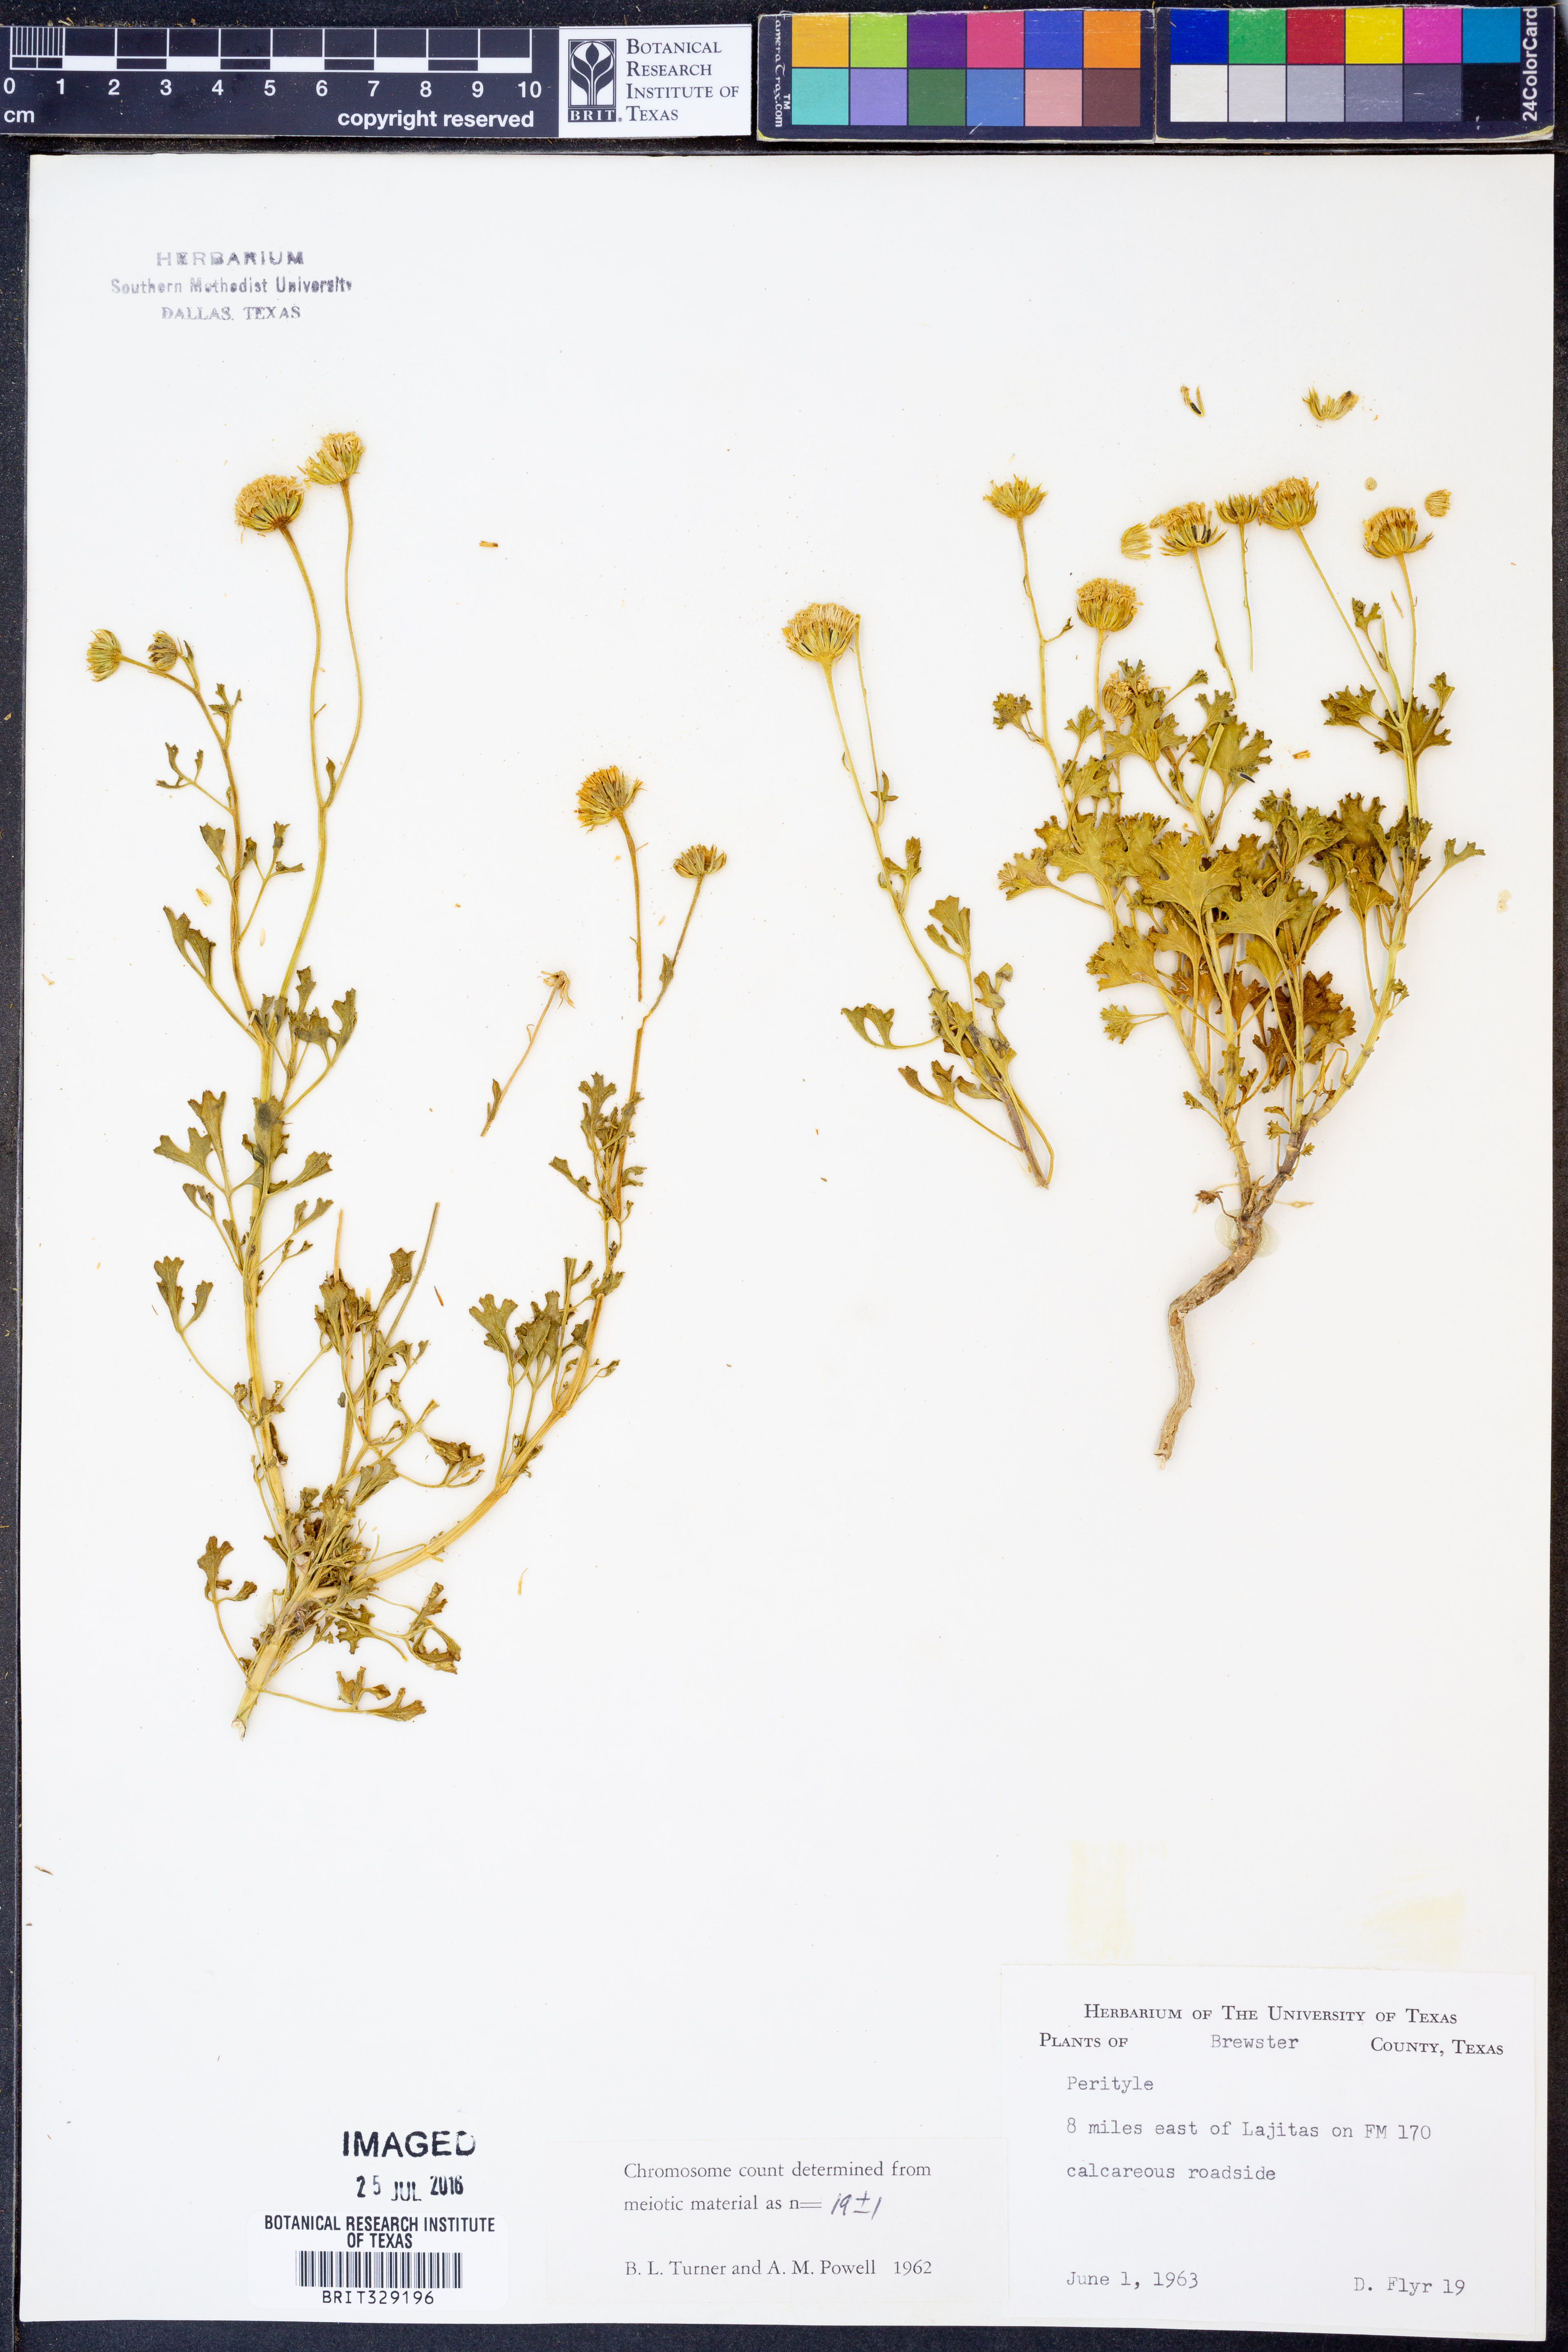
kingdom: Plantae
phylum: Tracheophyta
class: Magnoliopsida
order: Asterales
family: Asteraceae
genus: Perityle
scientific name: Perityle
